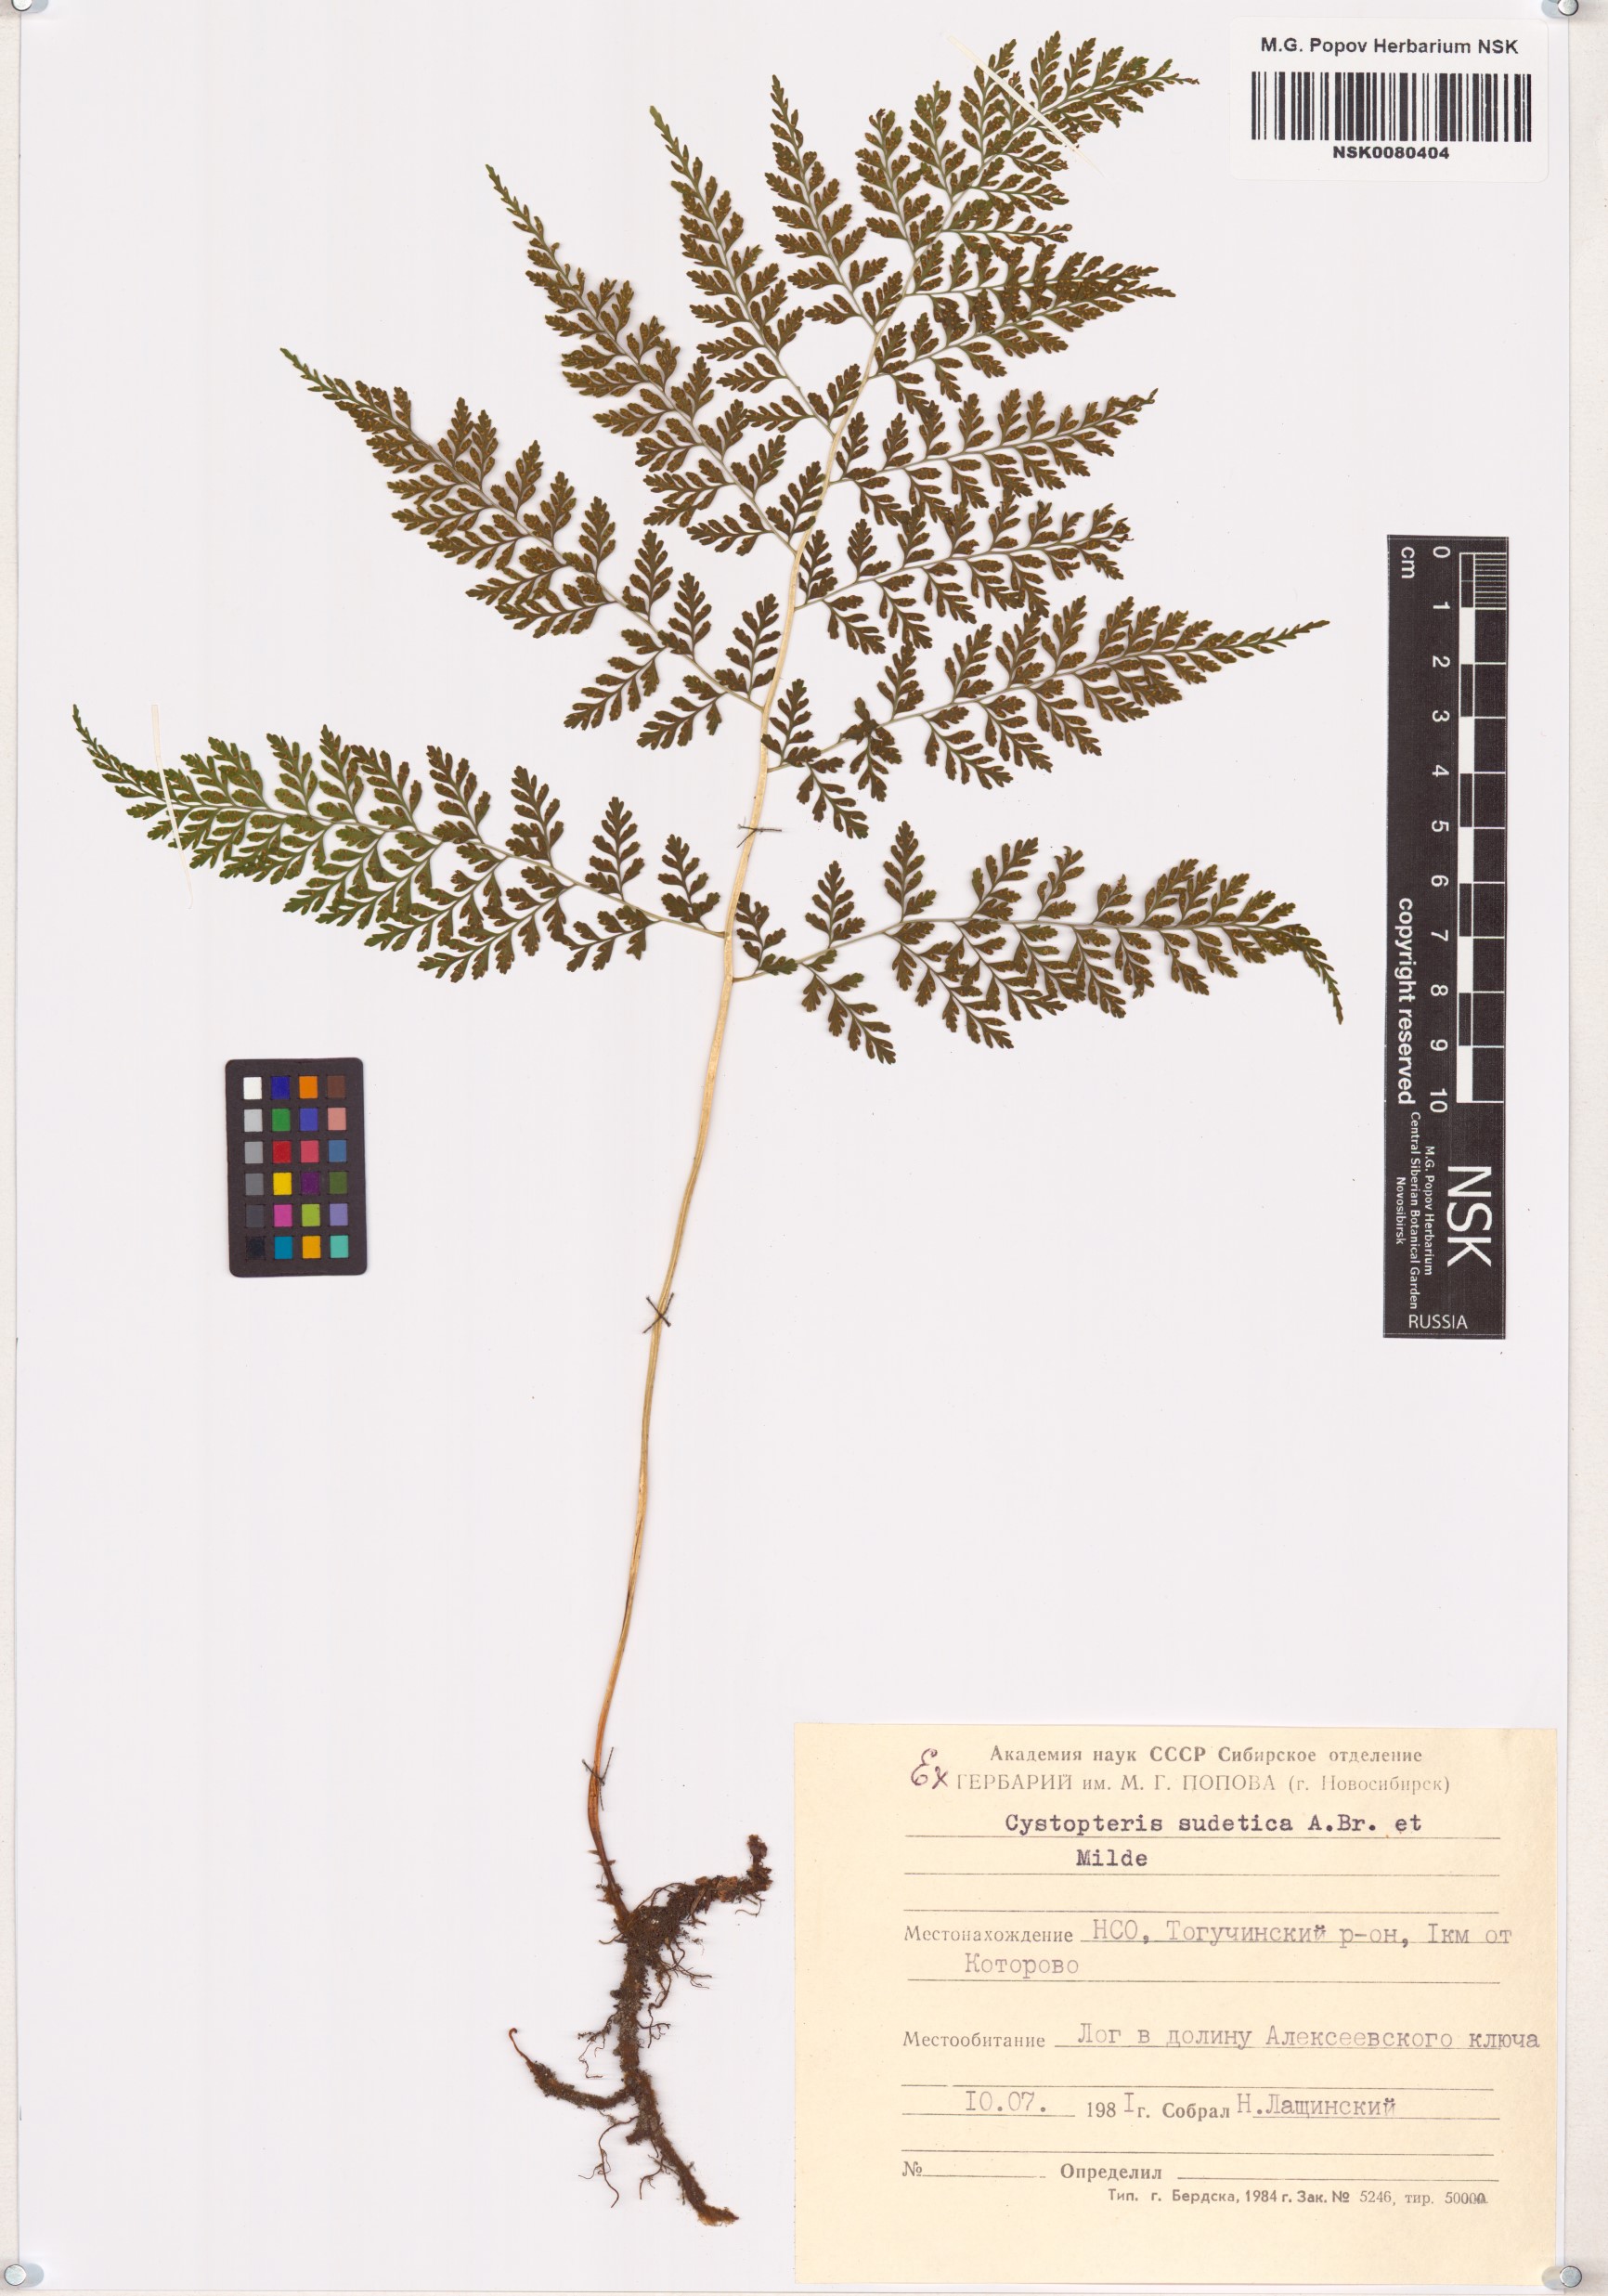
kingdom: Plantae
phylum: Tracheophyta
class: Polypodiopsida
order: Polypodiales
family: Cystopteridaceae
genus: Cystopteris
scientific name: Cystopteris sudetica
